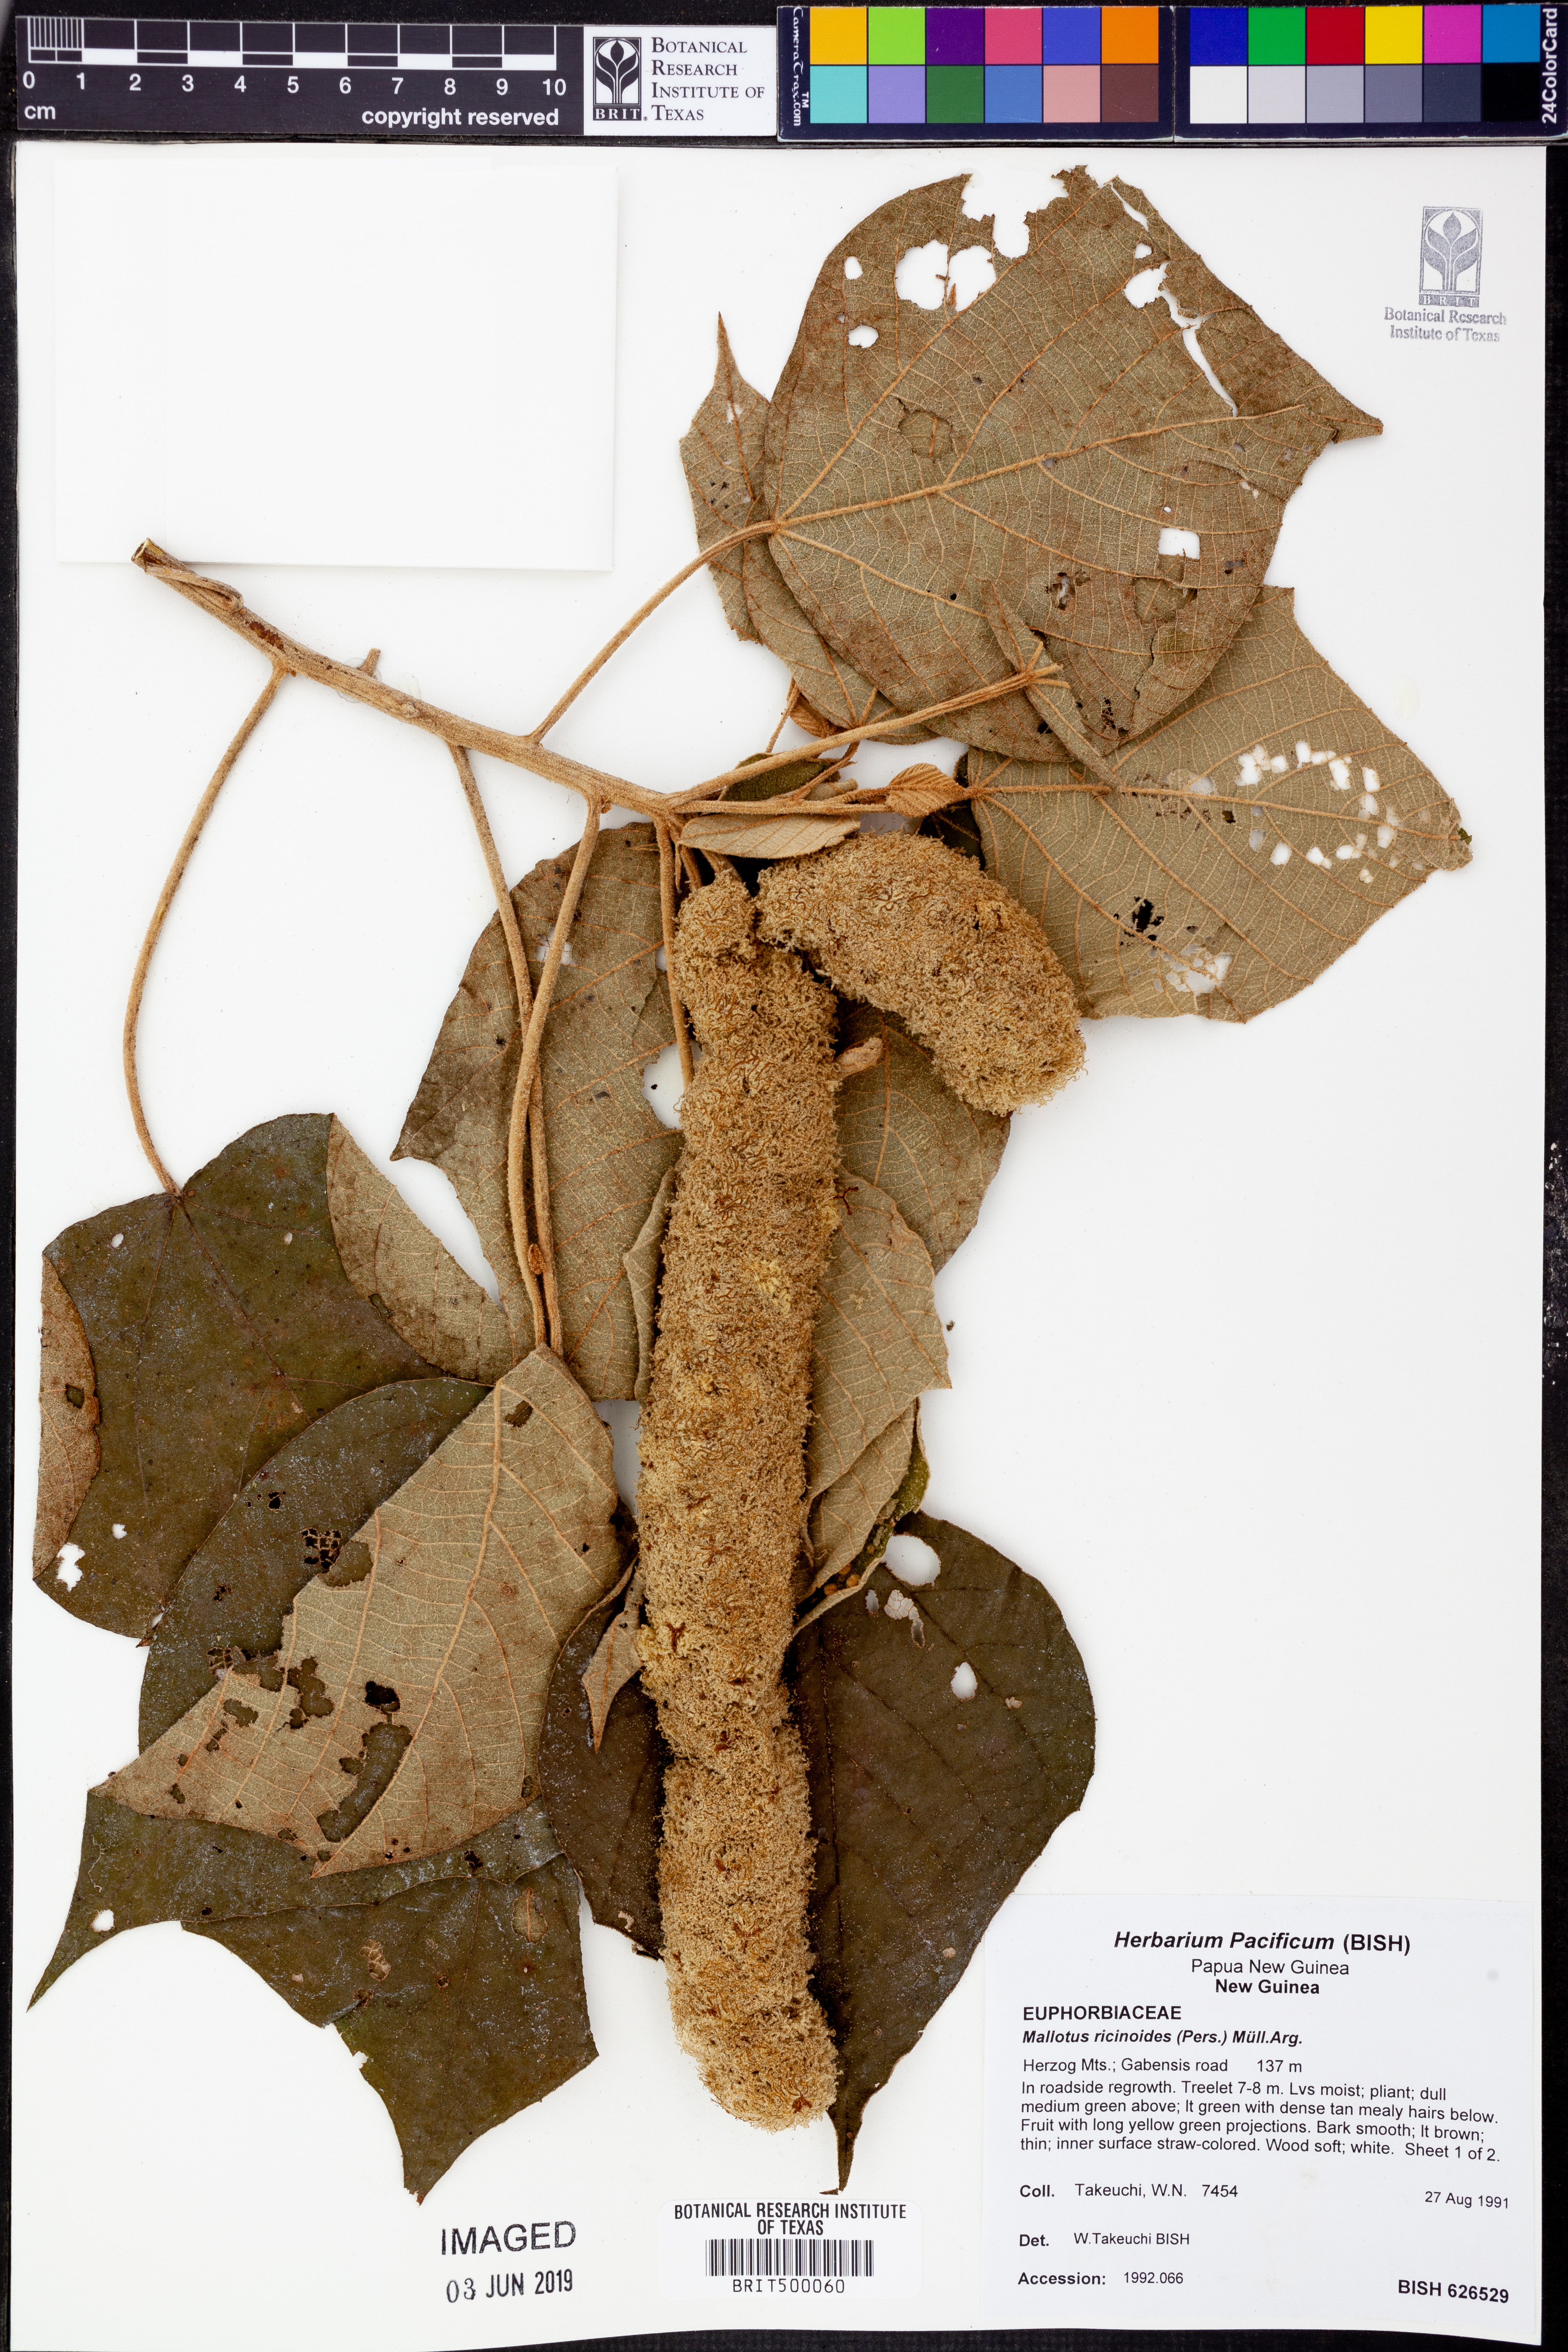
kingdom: Plantae
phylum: Tracheophyta
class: Magnoliopsida
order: Malpighiales
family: Euphorbiaceae
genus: Mallotus
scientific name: Mallotus mollissimus
